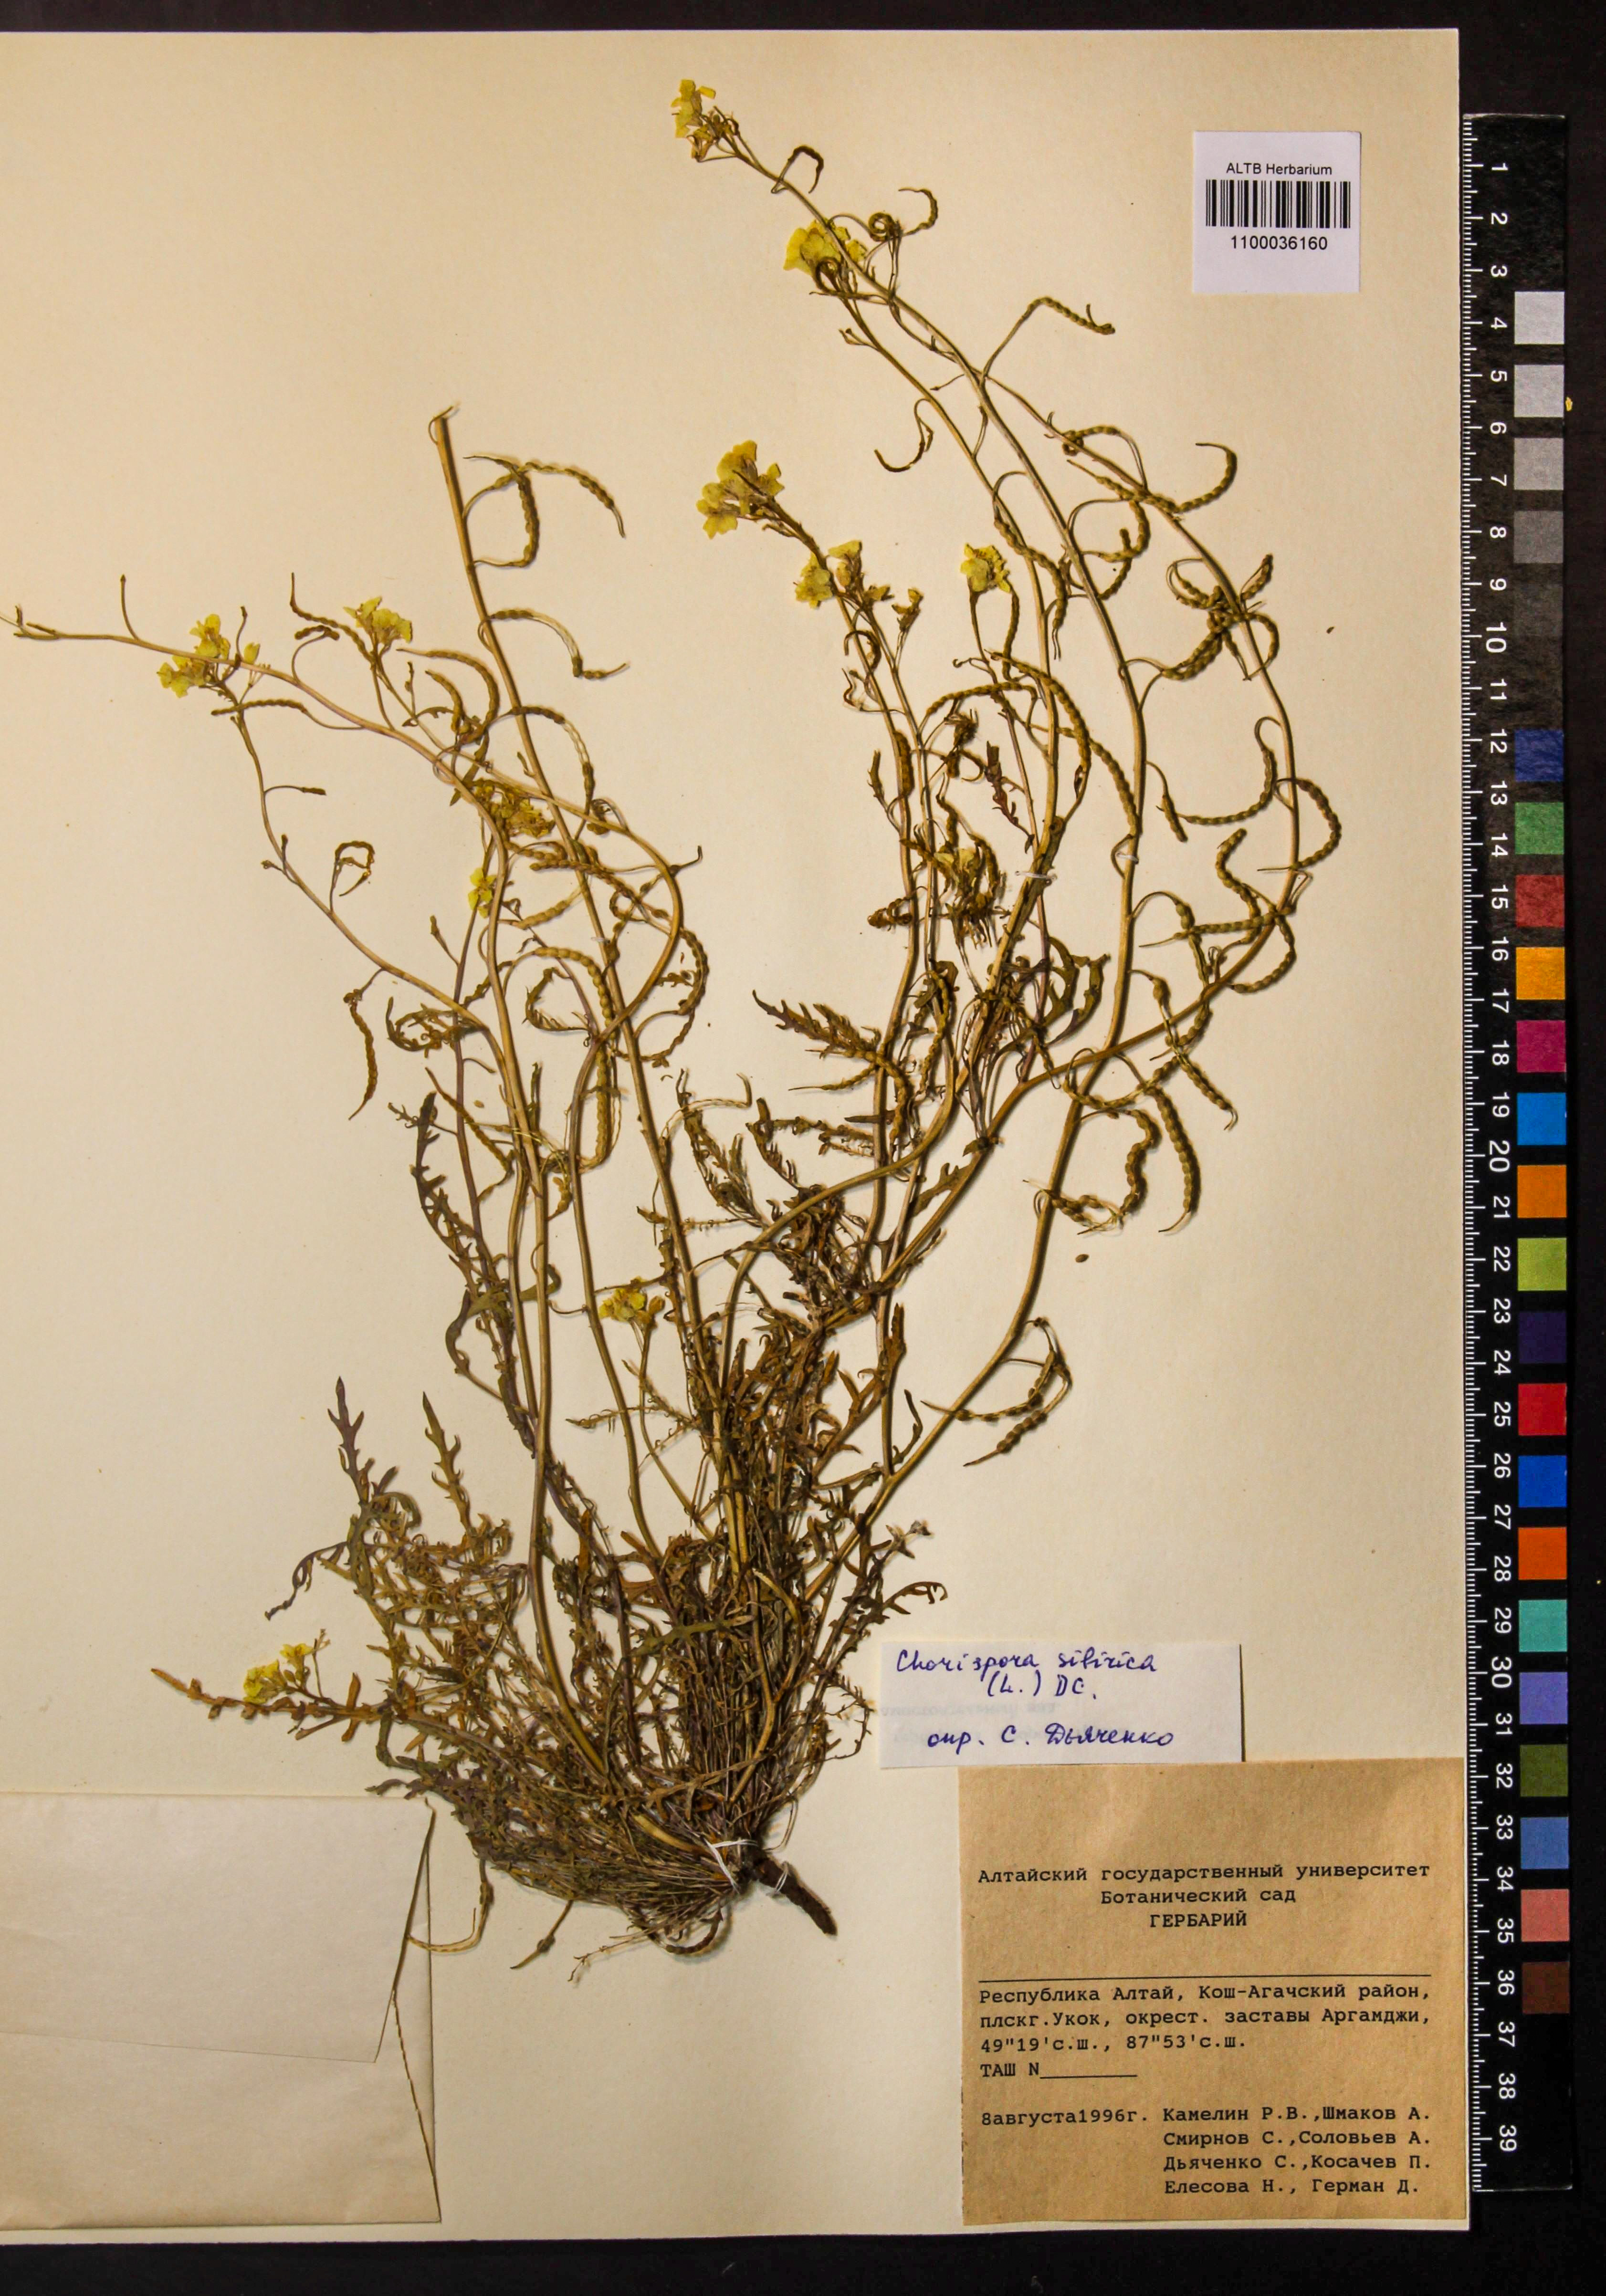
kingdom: Plantae
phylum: Tracheophyta
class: Magnoliopsida
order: Brassicales
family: Brassicaceae
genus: Chorispora
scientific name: Chorispora sibirica
